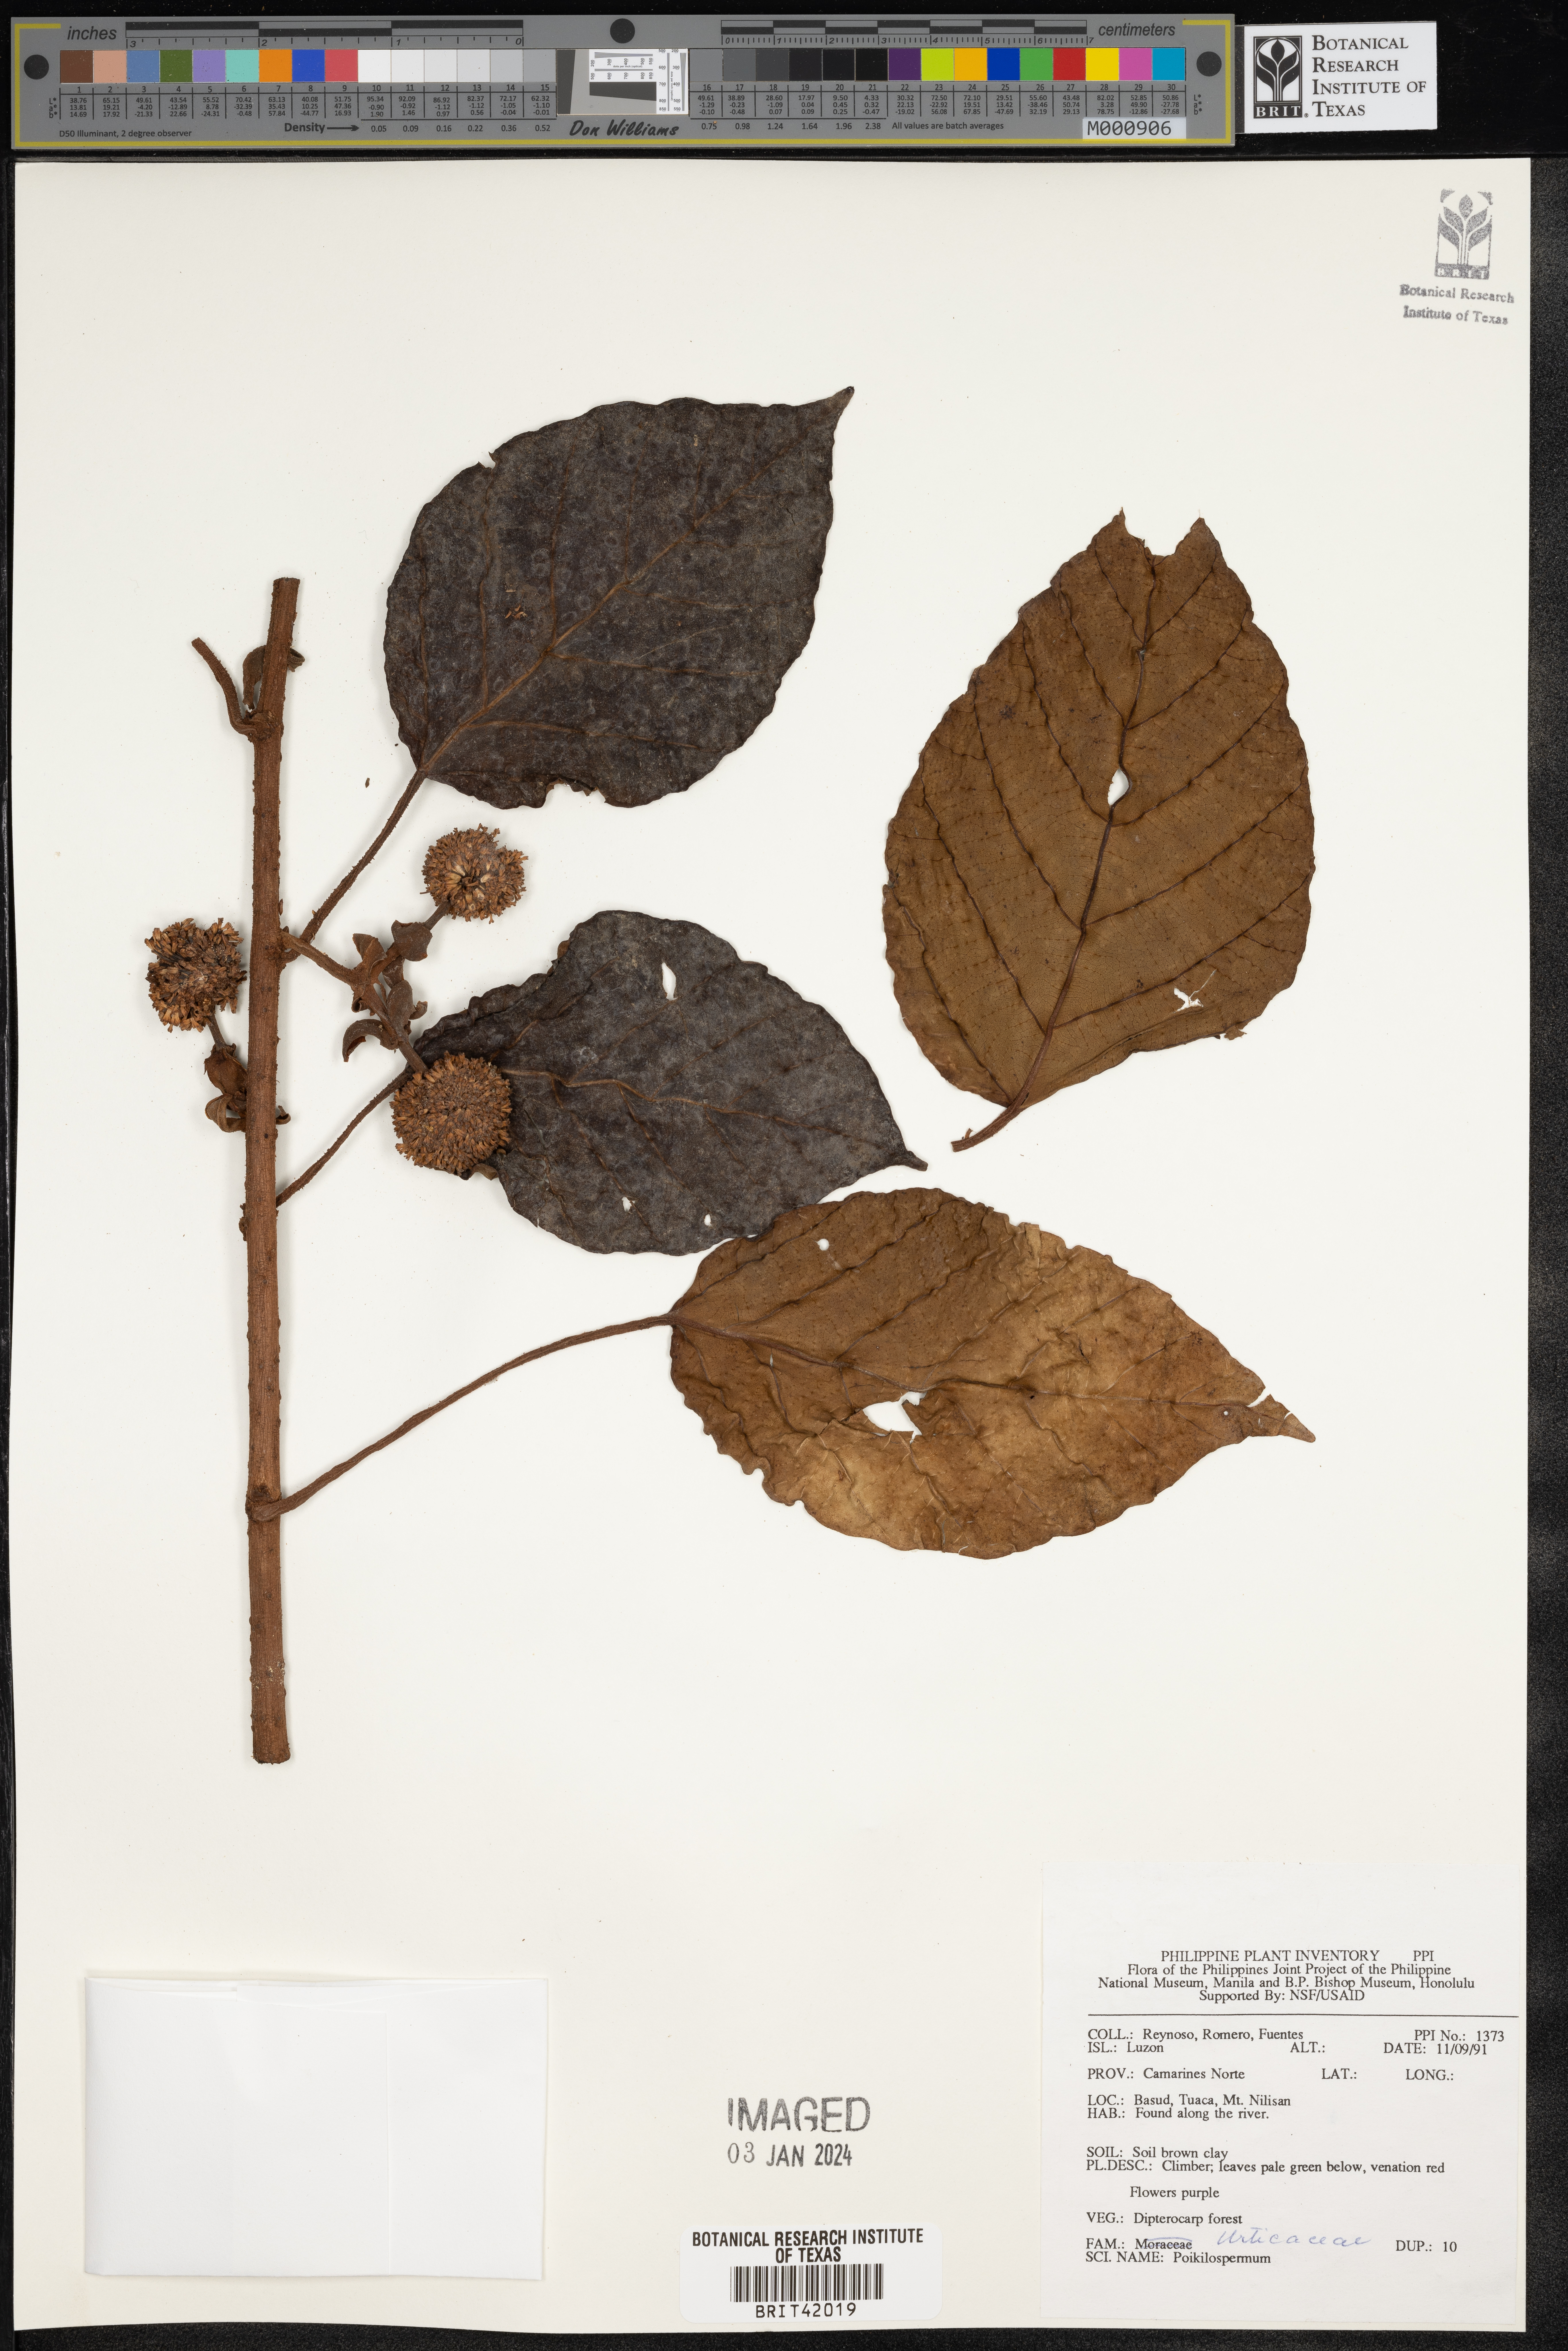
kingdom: Plantae
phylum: Tracheophyta
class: Magnoliopsida
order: Rosales
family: Urticaceae
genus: Poikilospermum
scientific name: Poikilospermum
